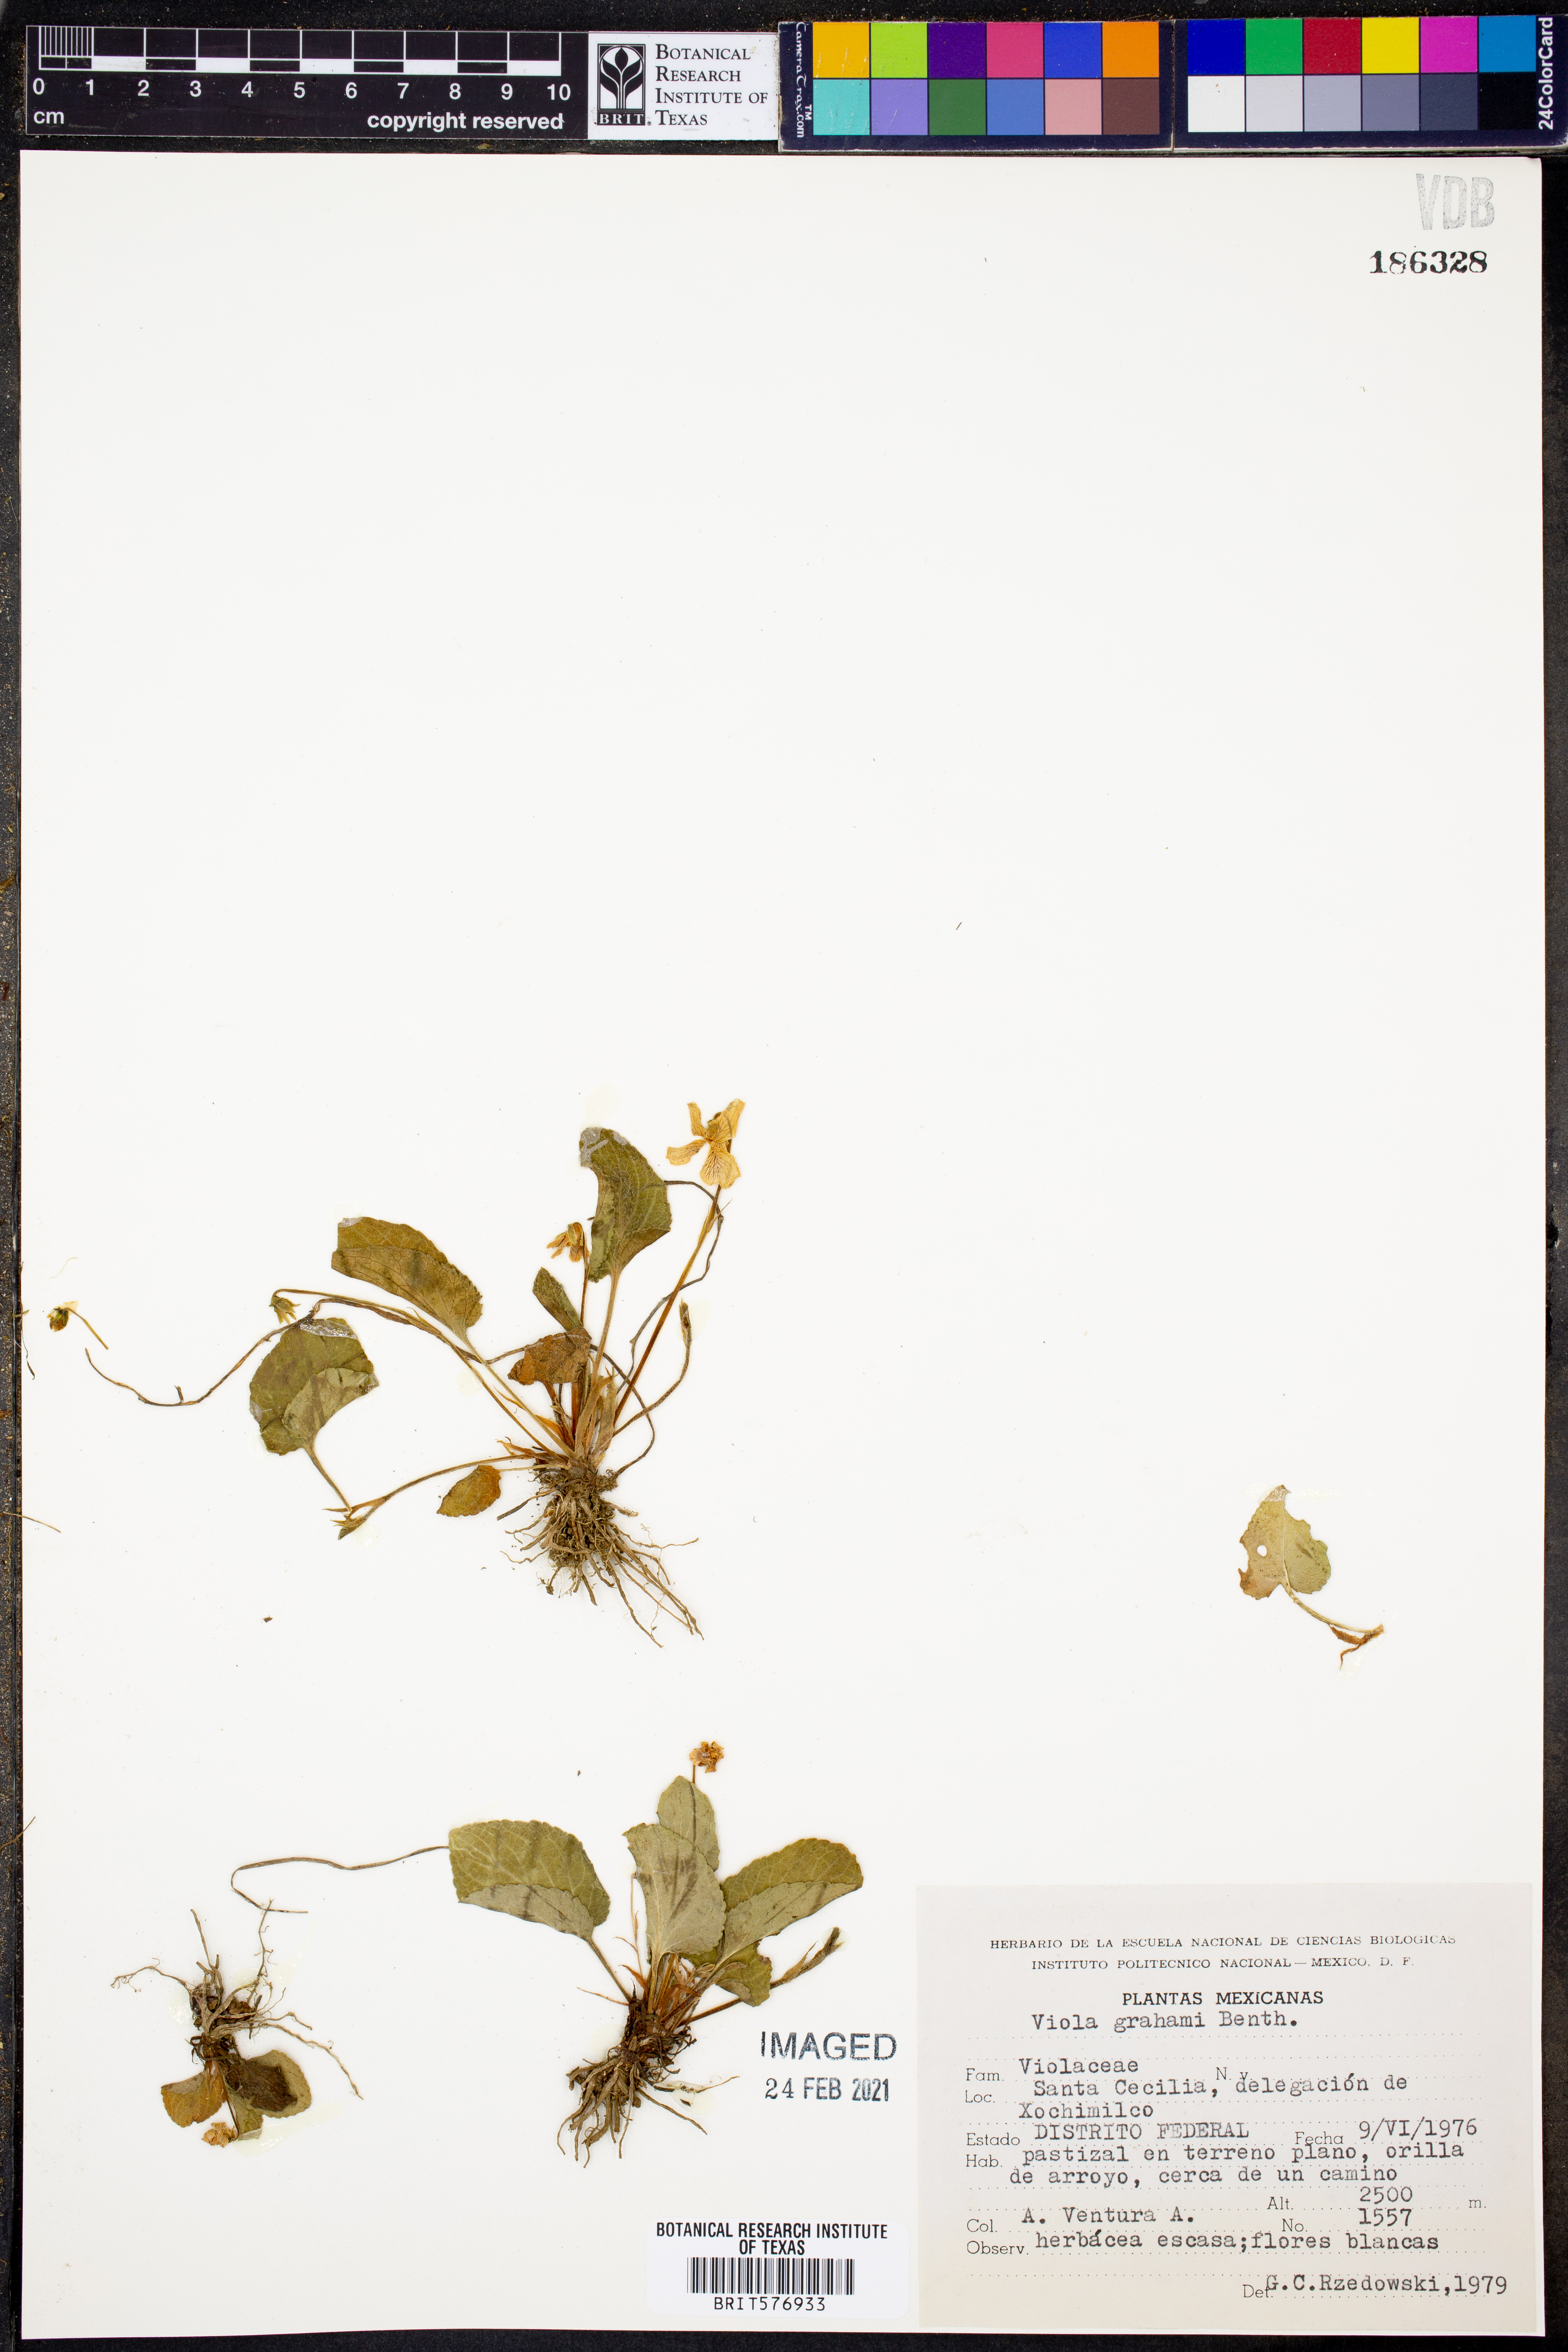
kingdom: Plantae
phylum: Tracheophyta
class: Magnoliopsida
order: Malpighiales
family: Violaceae
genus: Viola
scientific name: Viola grahamii
